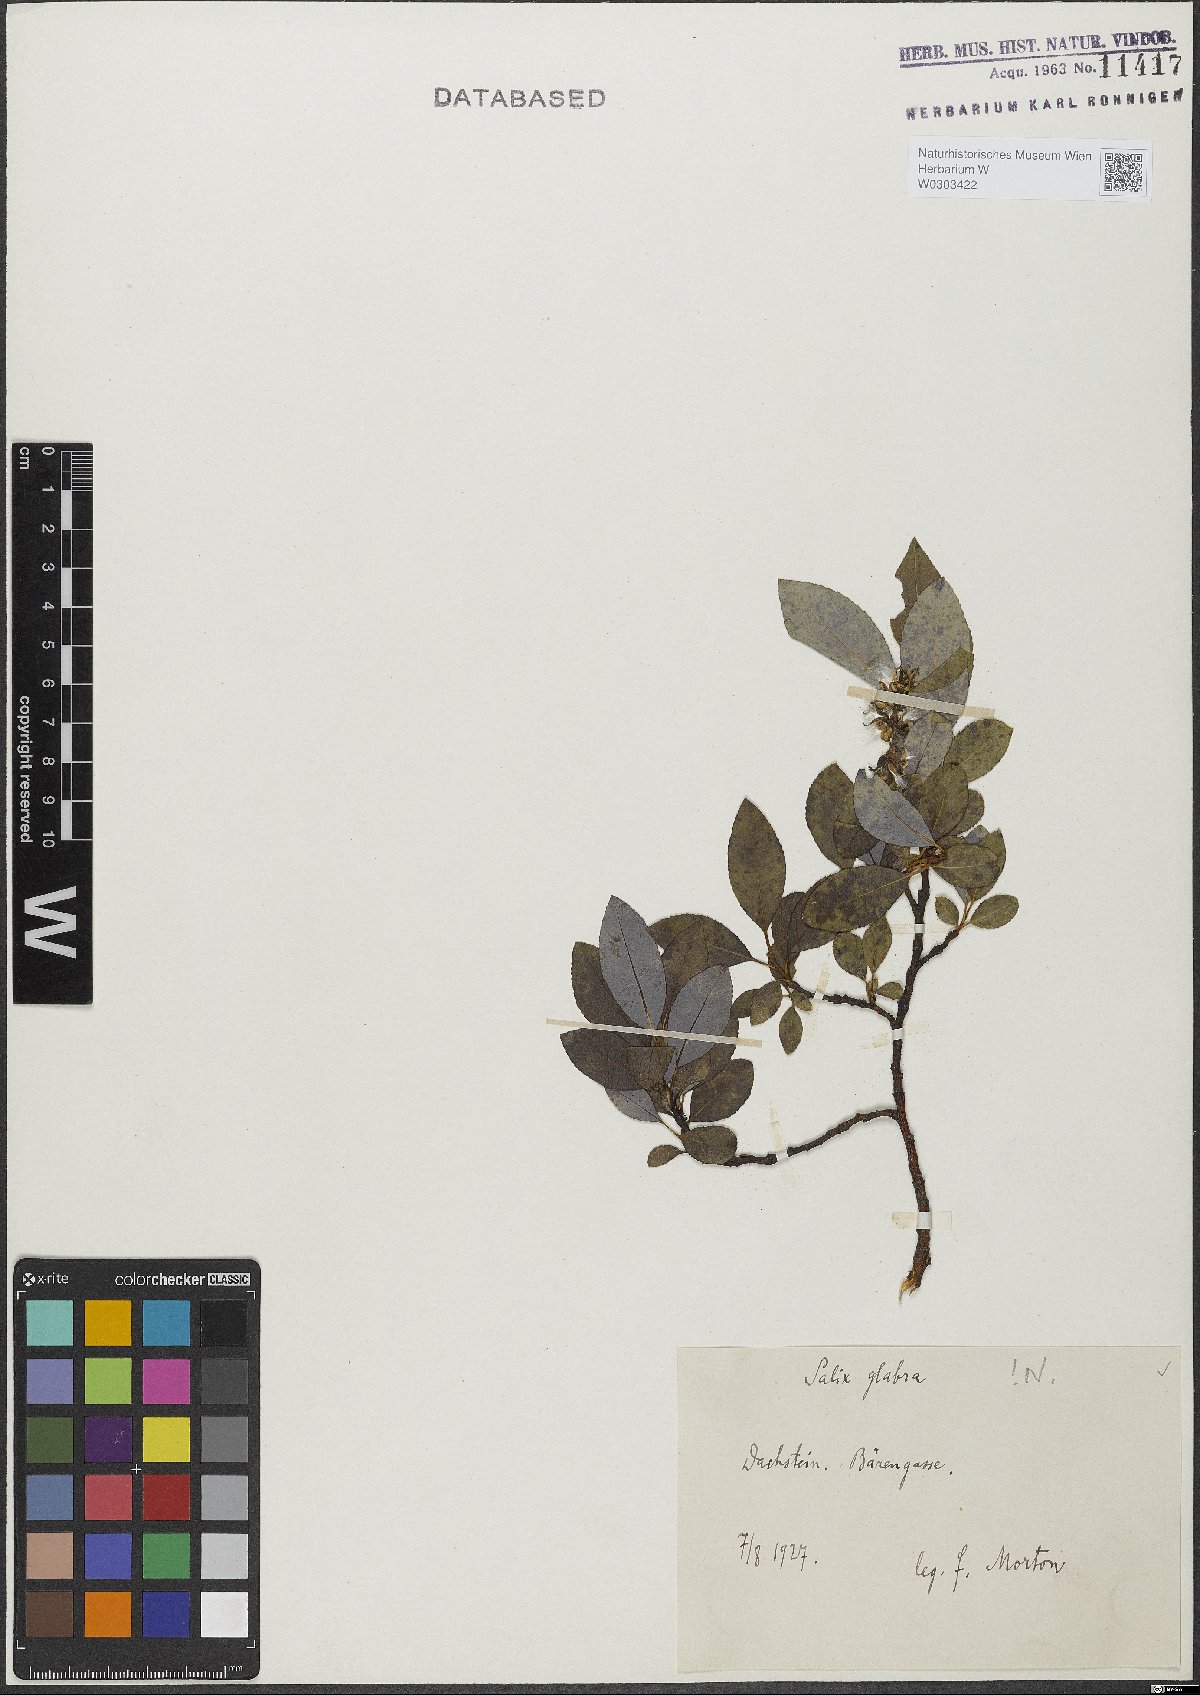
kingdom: Plantae
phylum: Tracheophyta
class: Magnoliopsida
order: Malpighiales
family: Salicaceae
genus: Salix
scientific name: Salix glabra
